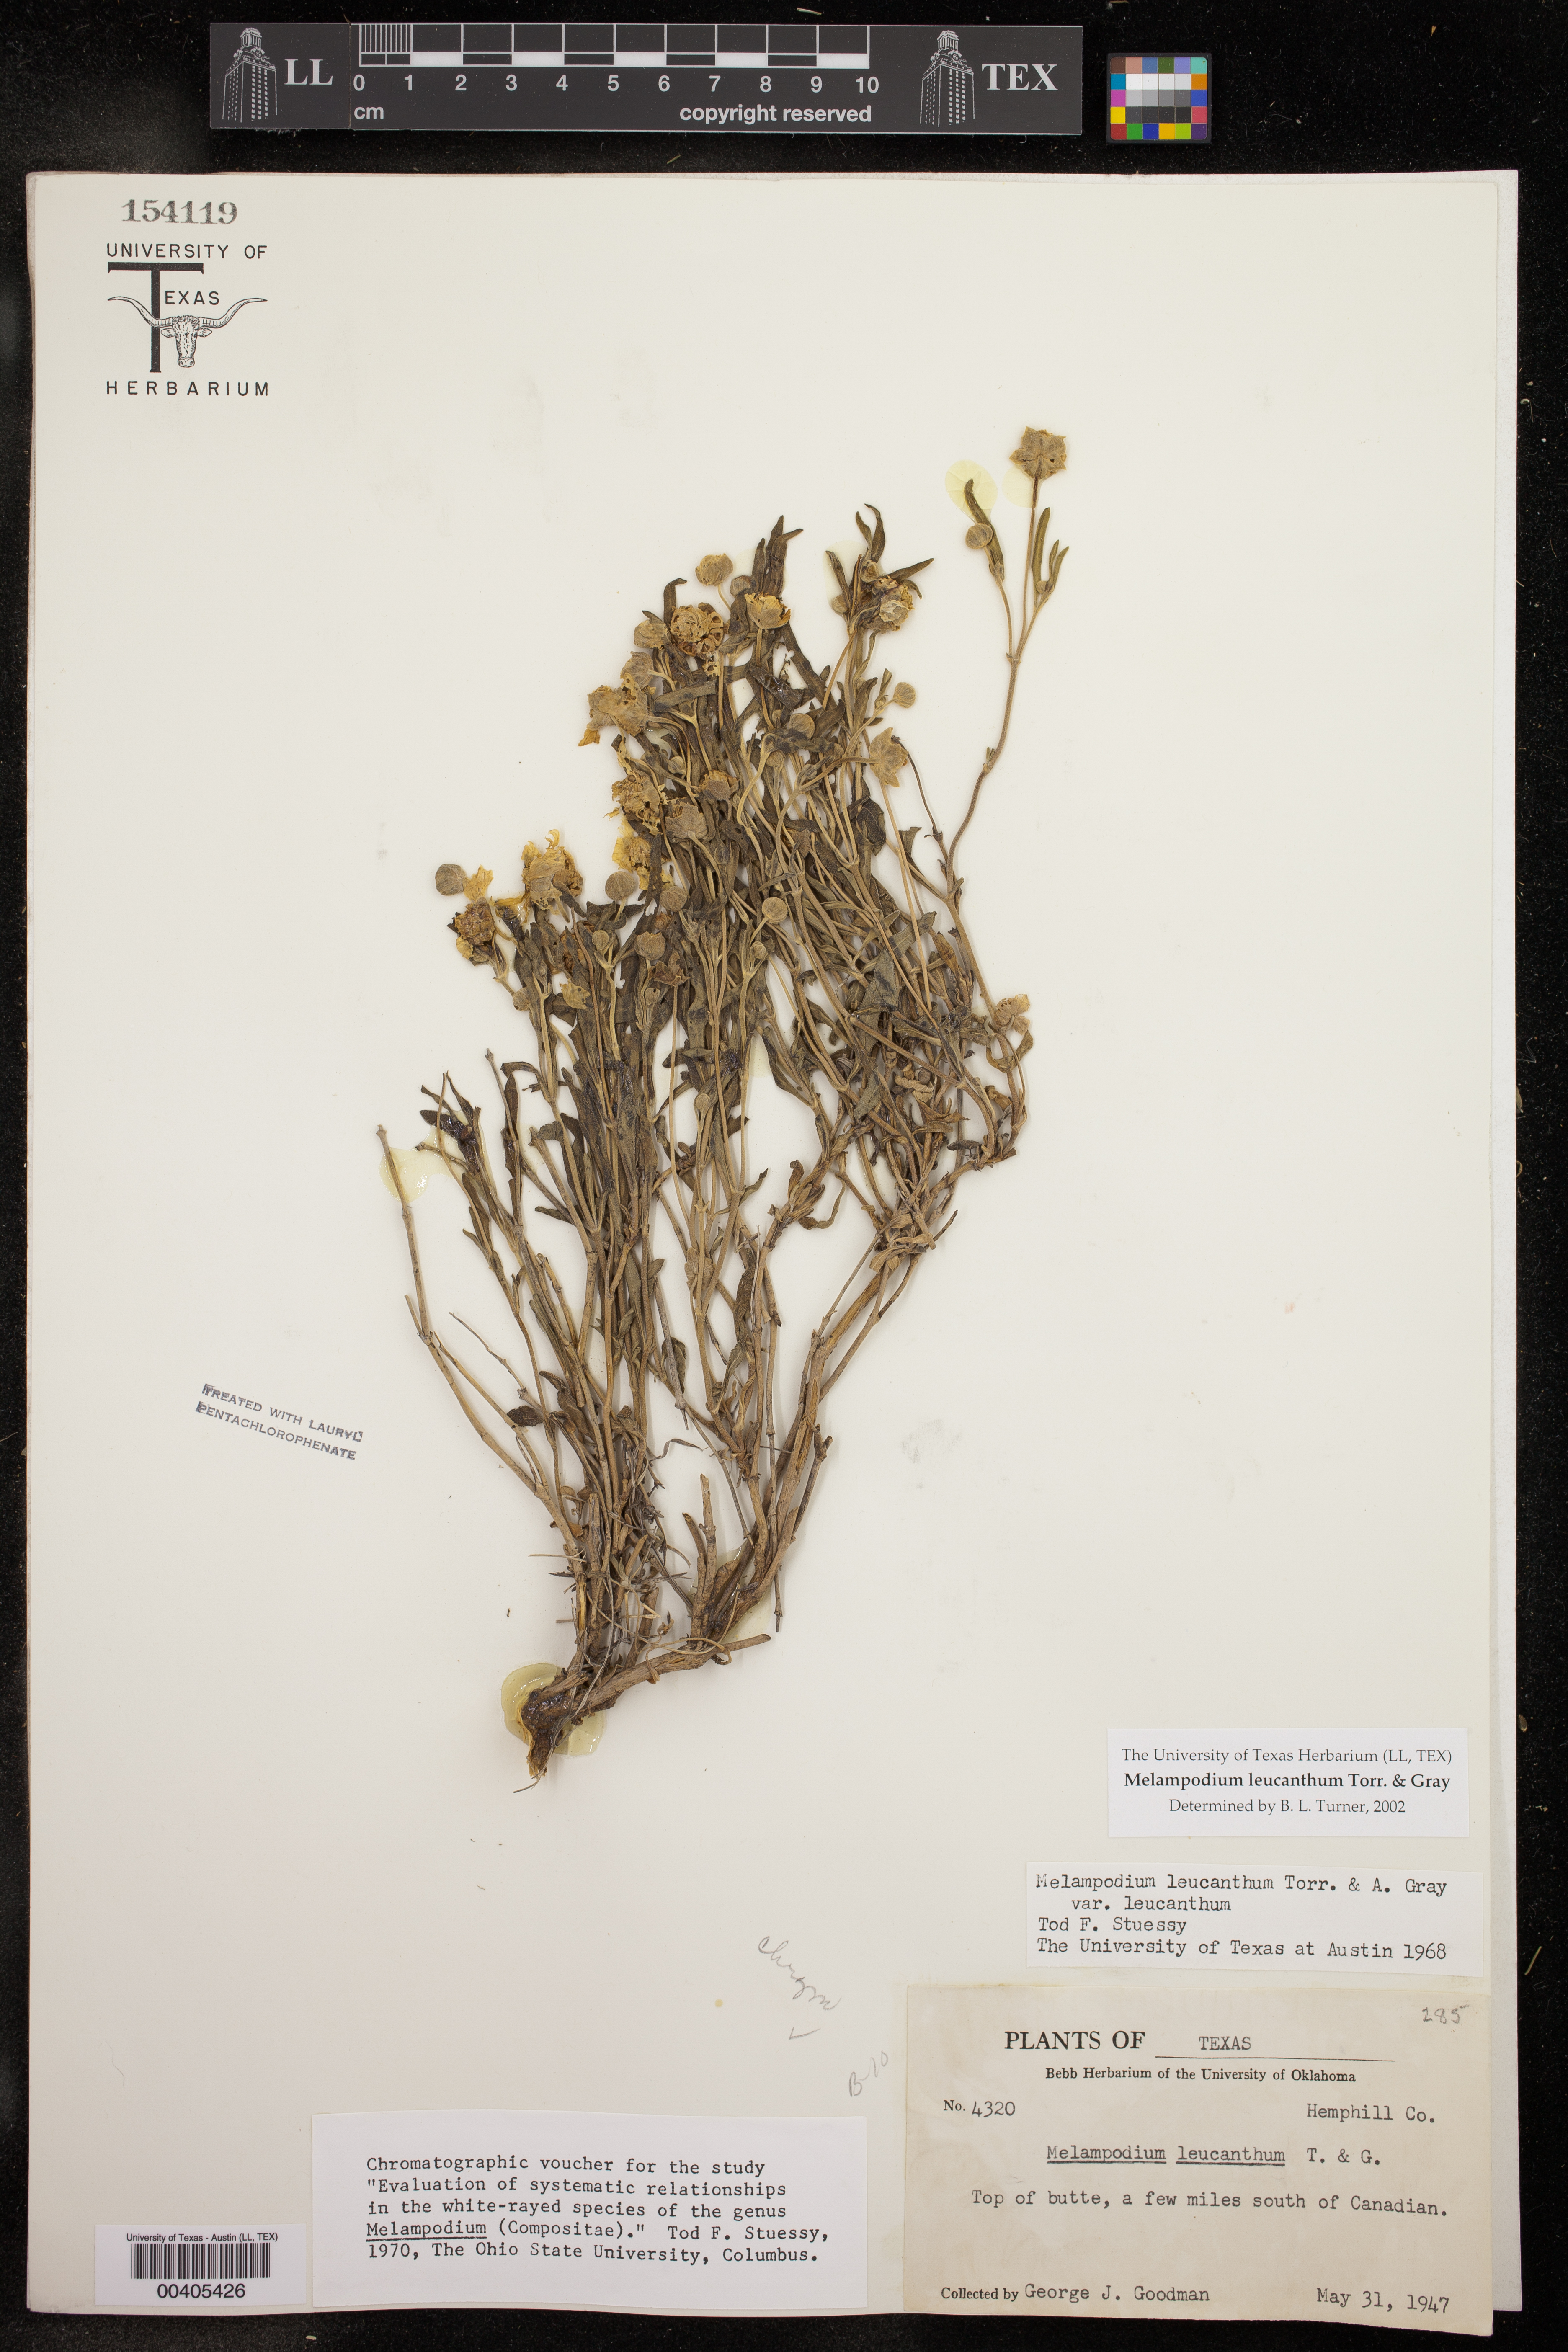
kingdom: Plantae
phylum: Tracheophyta
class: Magnoliopsida
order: Asterales
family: Asteraceae
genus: Melampodium
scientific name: Melampodium leucanthum
